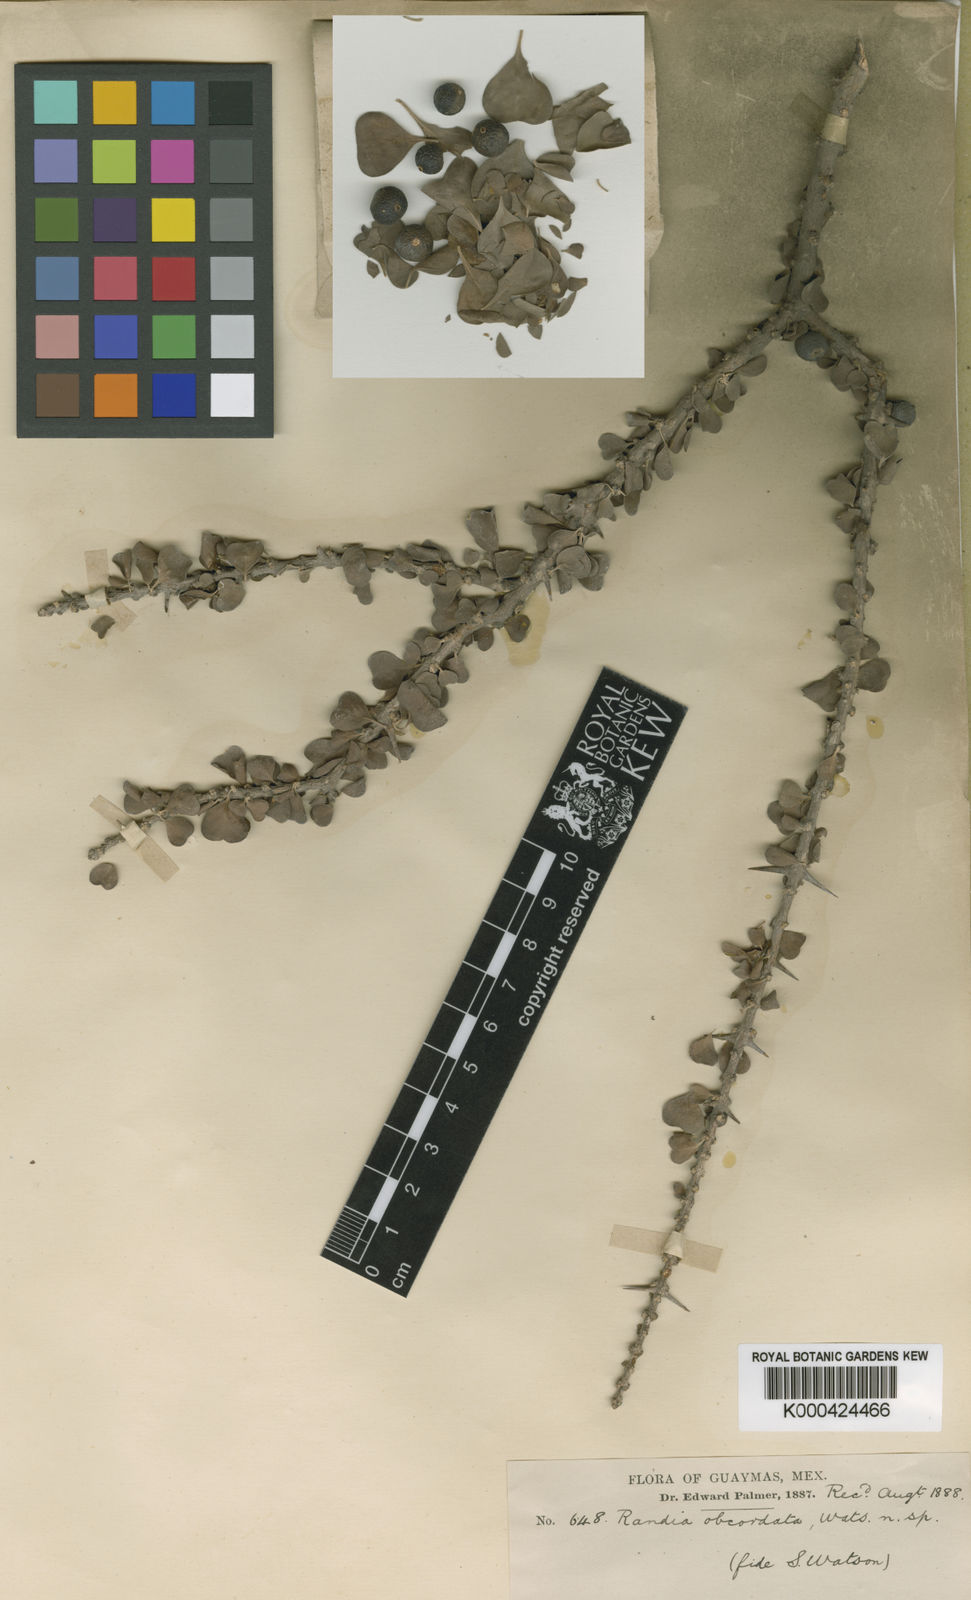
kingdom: Plantae
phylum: Tracheophyta
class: Magnoliopsida
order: Gentianales
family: Rubiaceae
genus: Randia
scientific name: Randia obcordata
